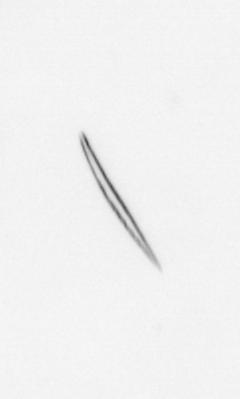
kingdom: Chromista
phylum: Ochrophyta
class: Bacillariophyceae
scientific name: Bacillariophyceae
